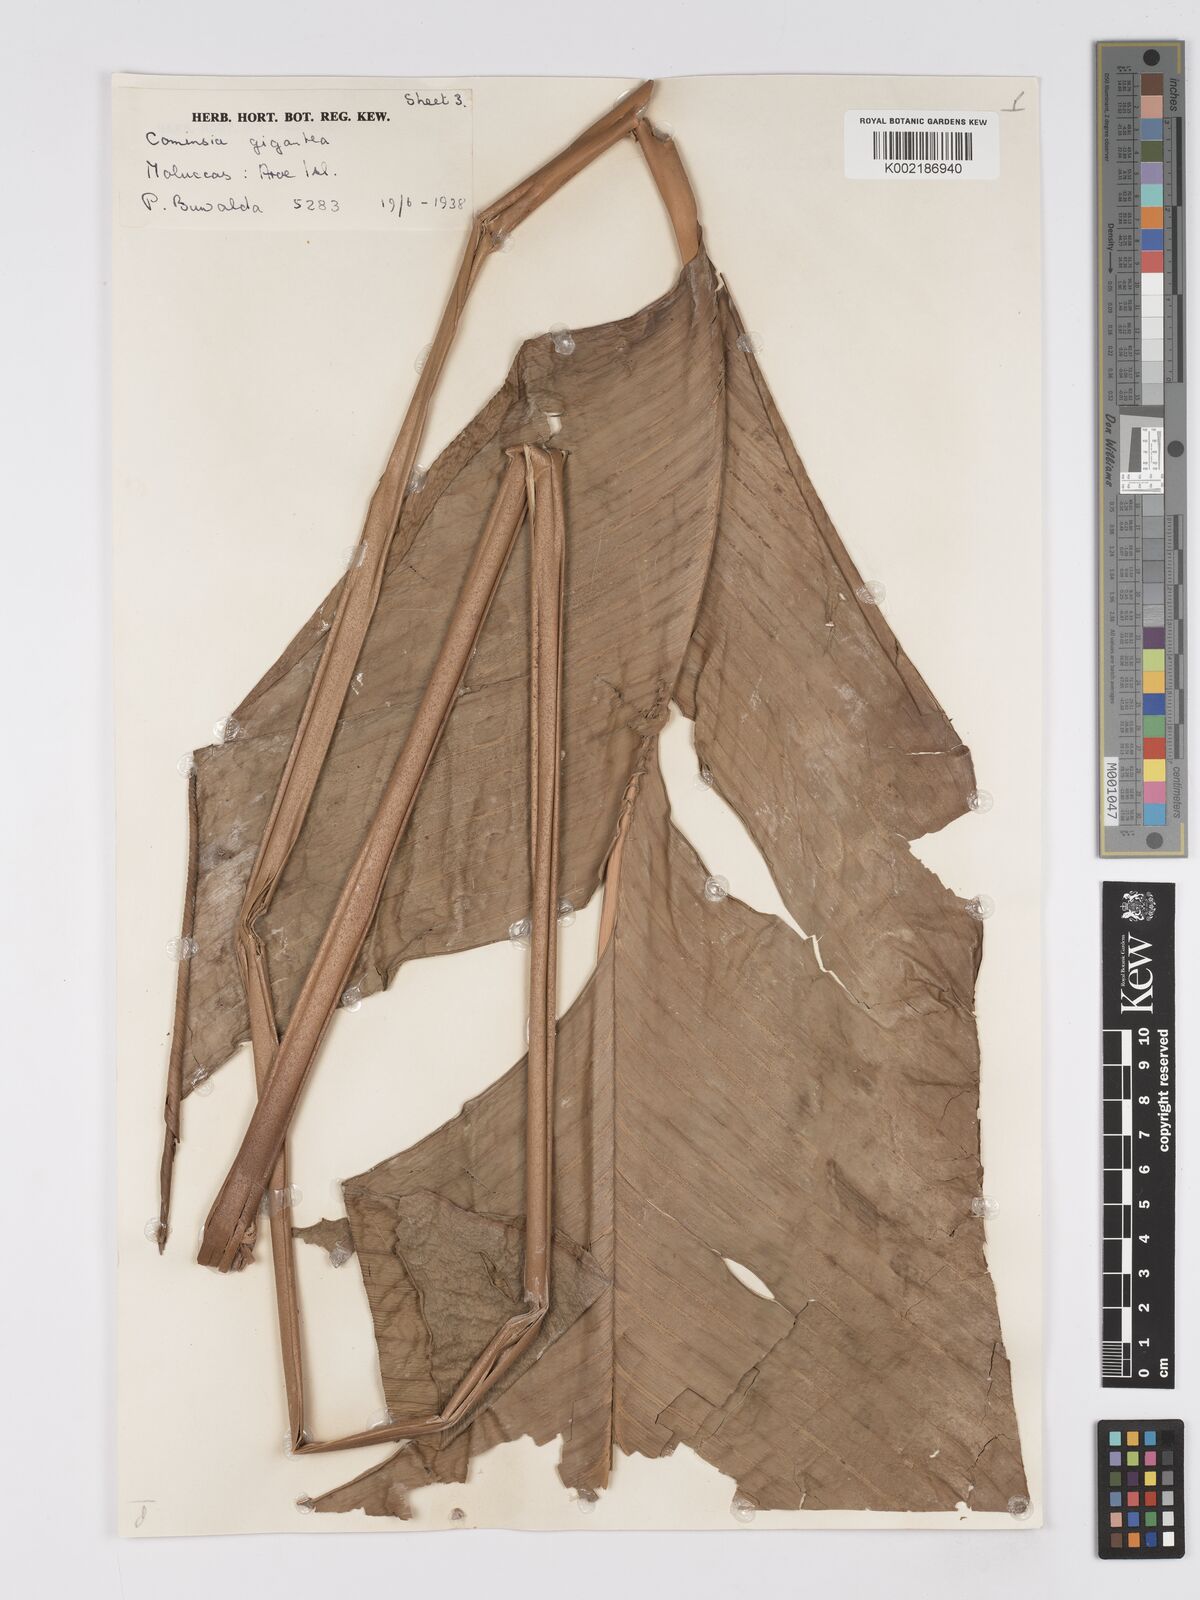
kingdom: Plantae
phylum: Tracheophyta
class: Liliopsida
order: Zingiberales
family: Marantaceae
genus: Phrynium
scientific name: Phrynium giganteum
